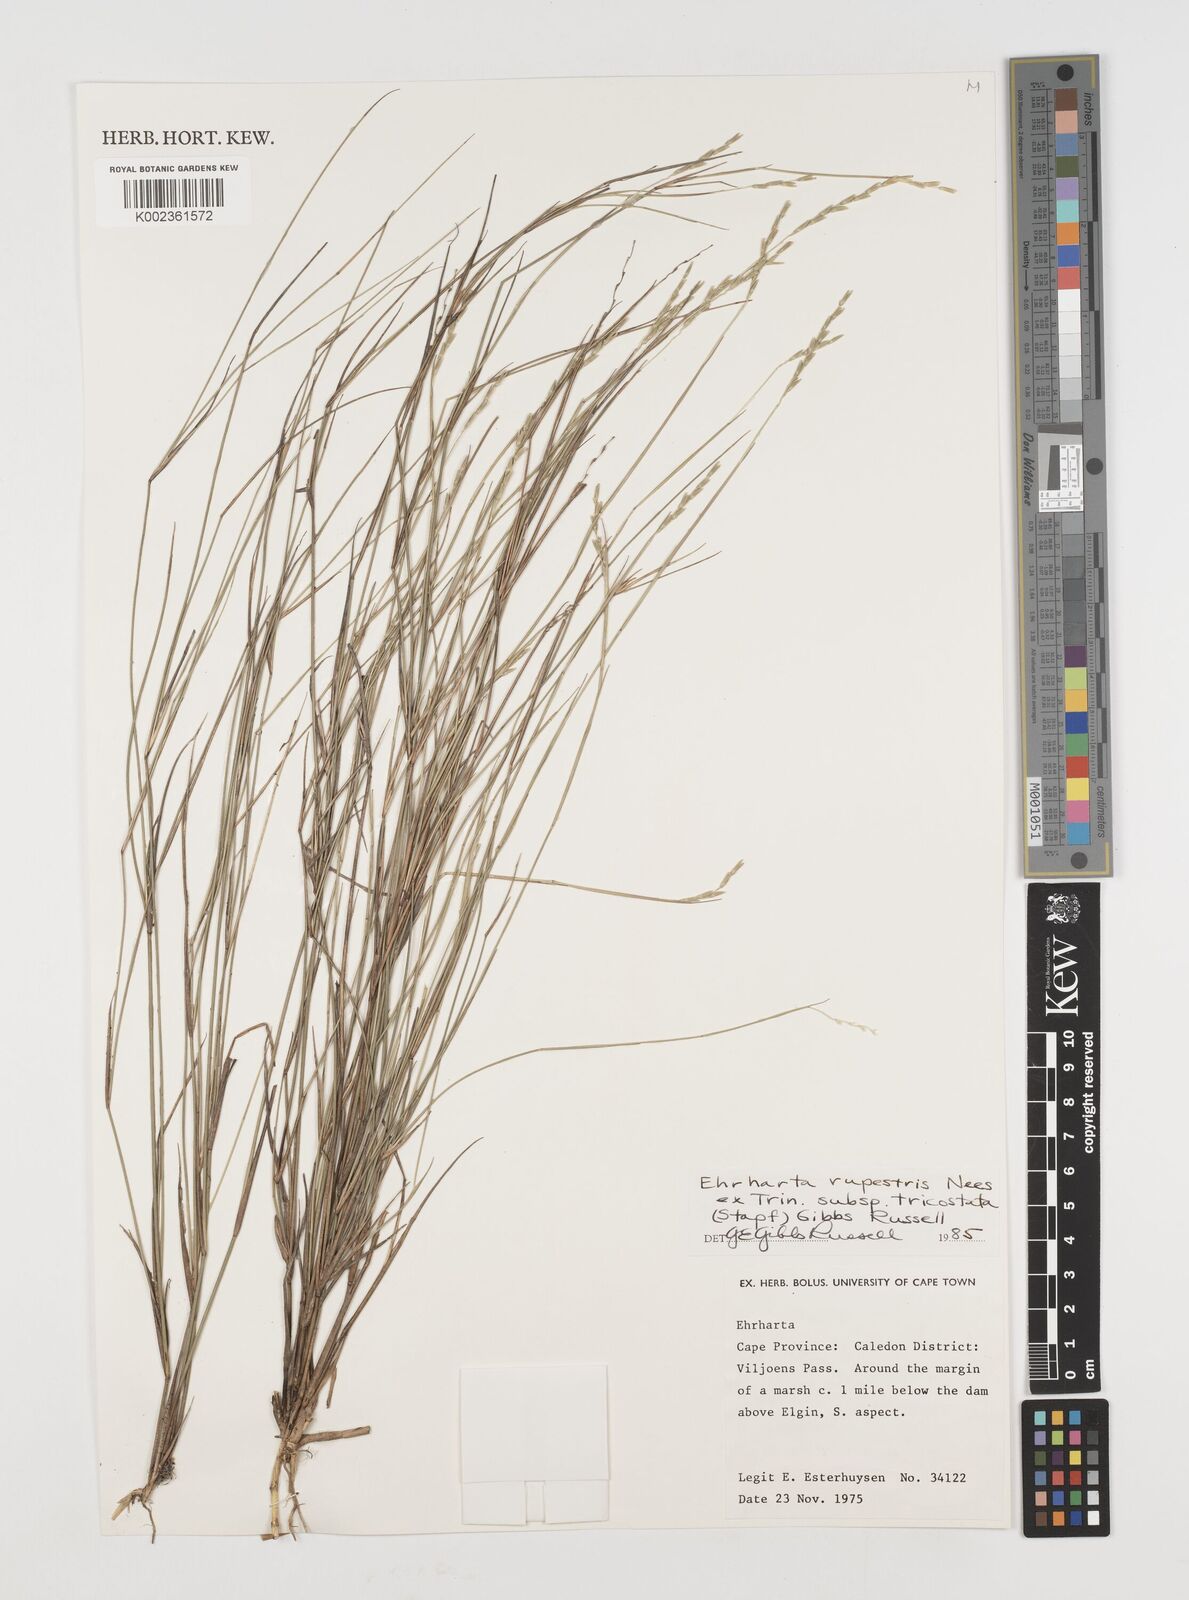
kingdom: Plantae
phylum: Tracheophyta
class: Liliopsida
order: Poales
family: Poaceae
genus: Ehrharta
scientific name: Ehrharta rupestris
